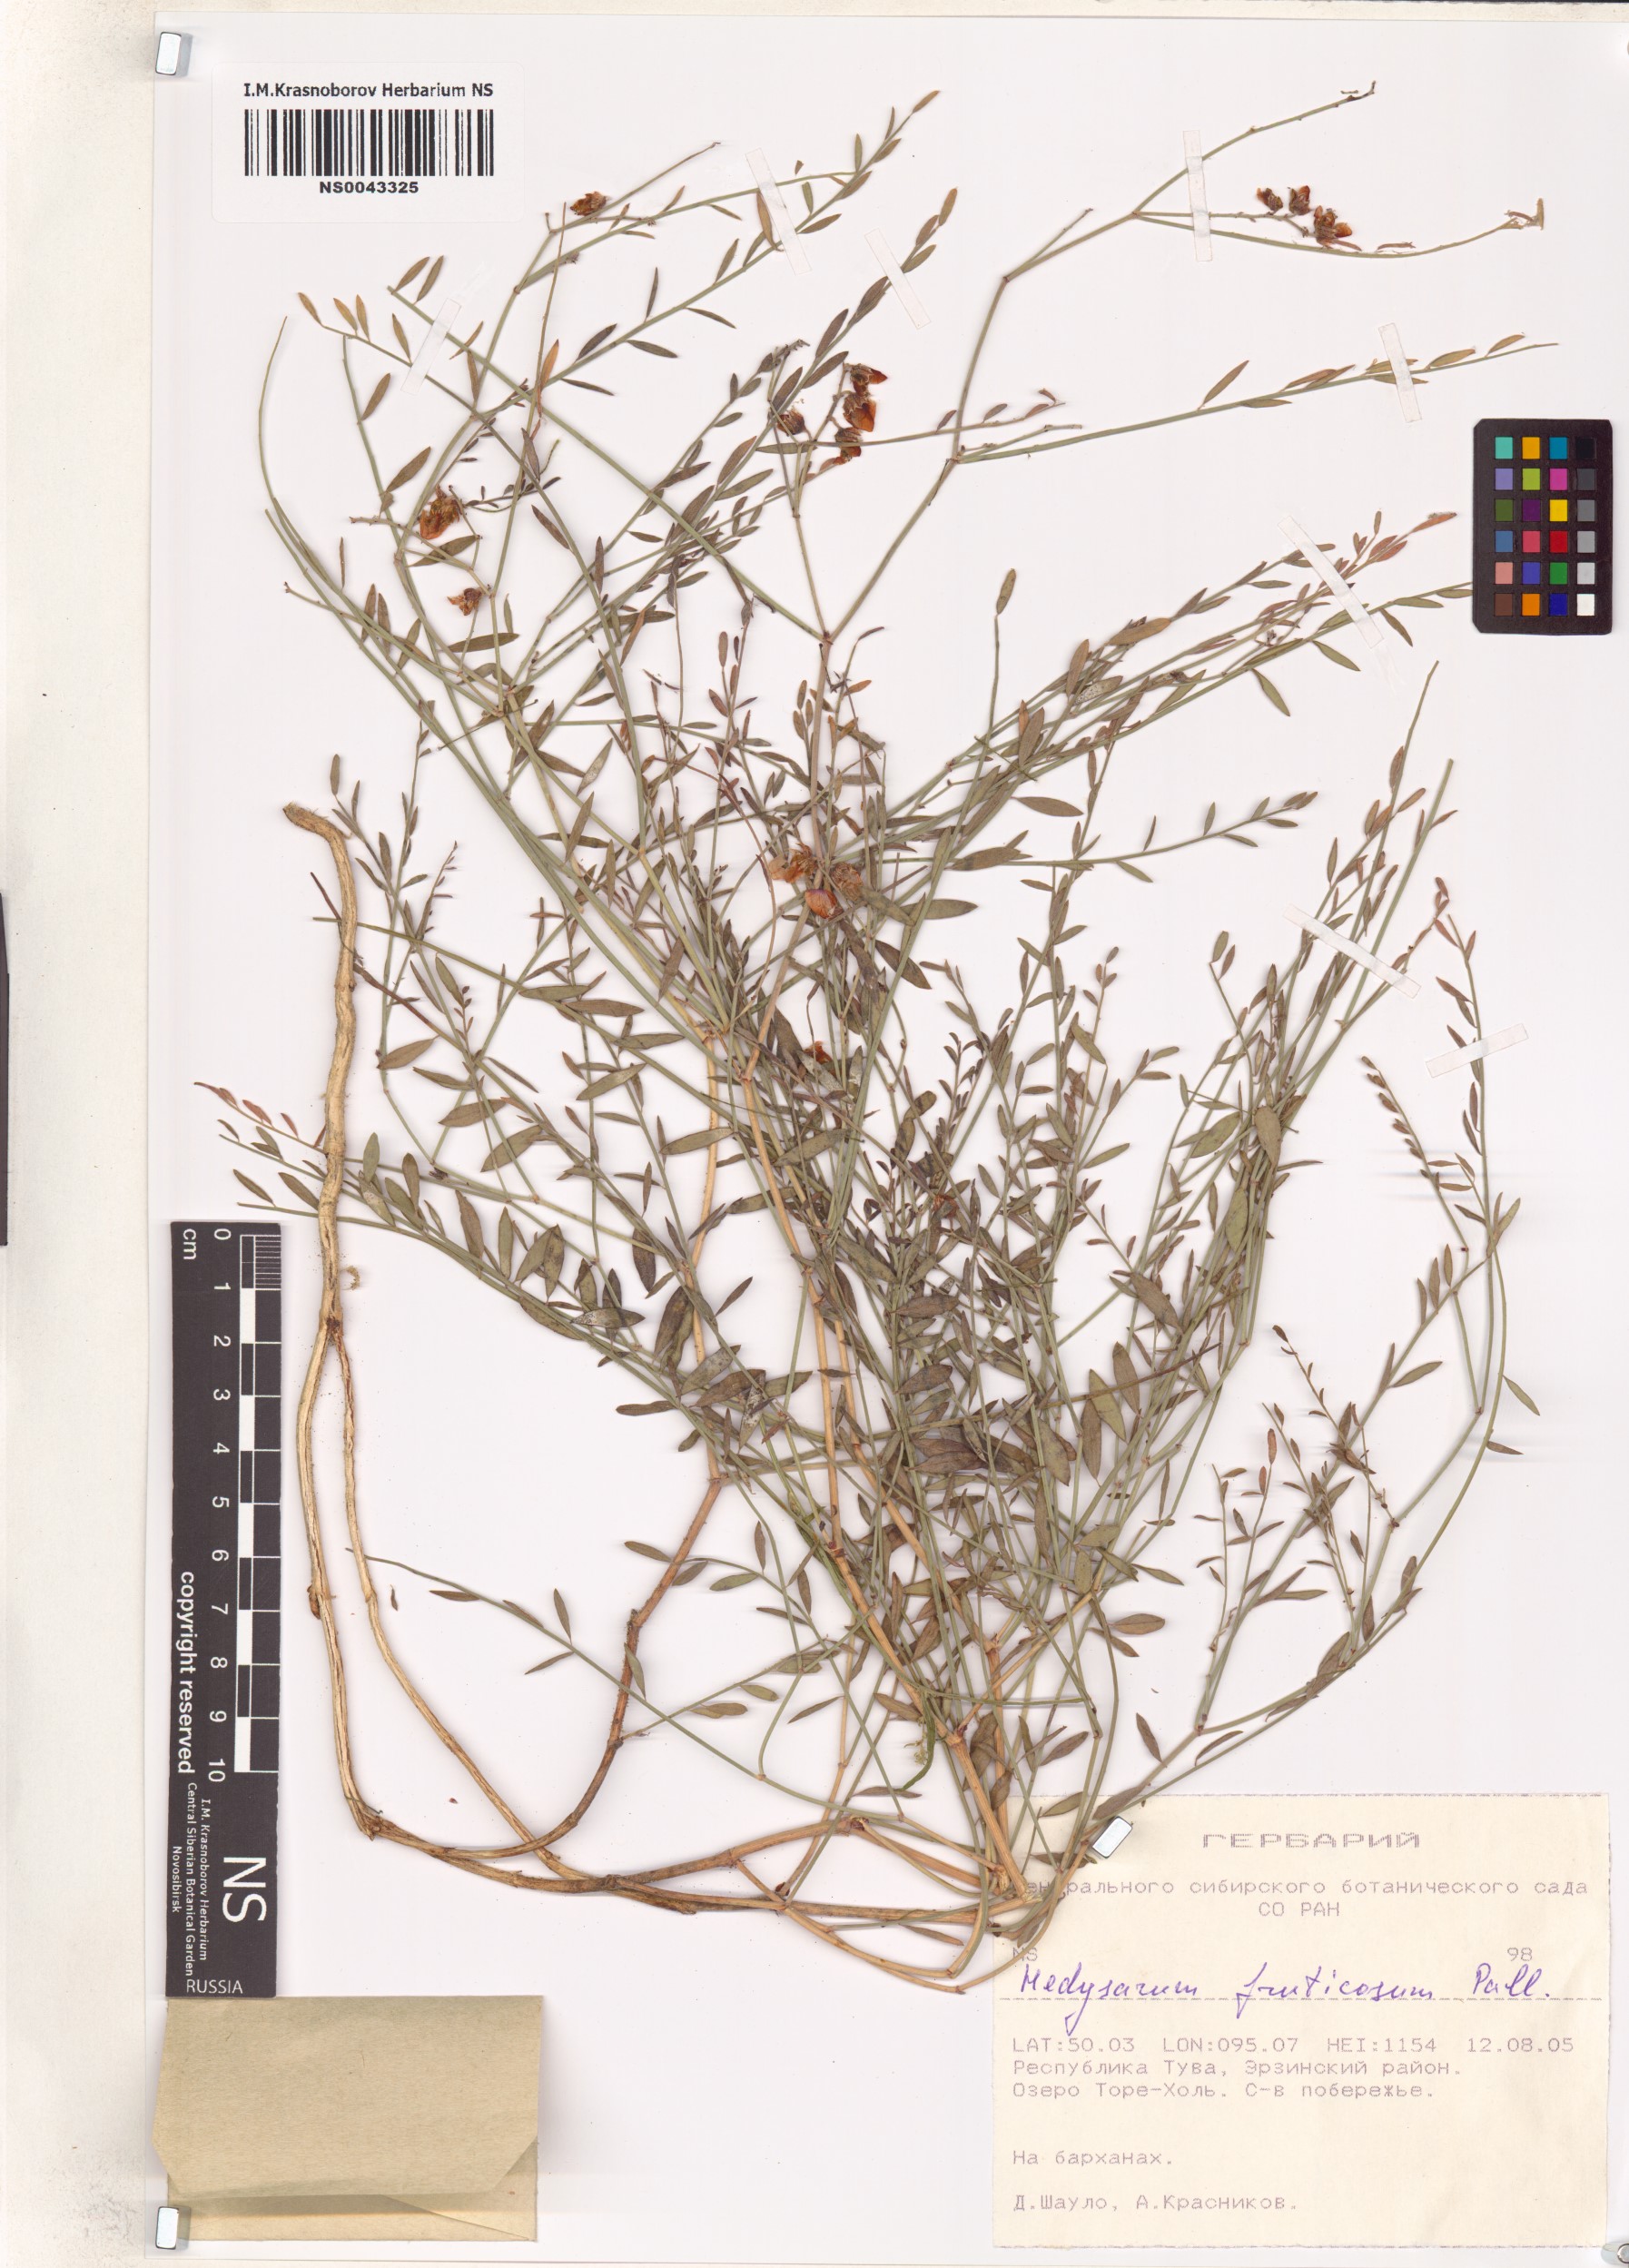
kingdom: Plantae
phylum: Tracheophyta
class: Magnoliopsida
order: Fabales
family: Fabaceae
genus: Corethrodendron
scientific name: Corethrodendron fruticosum
